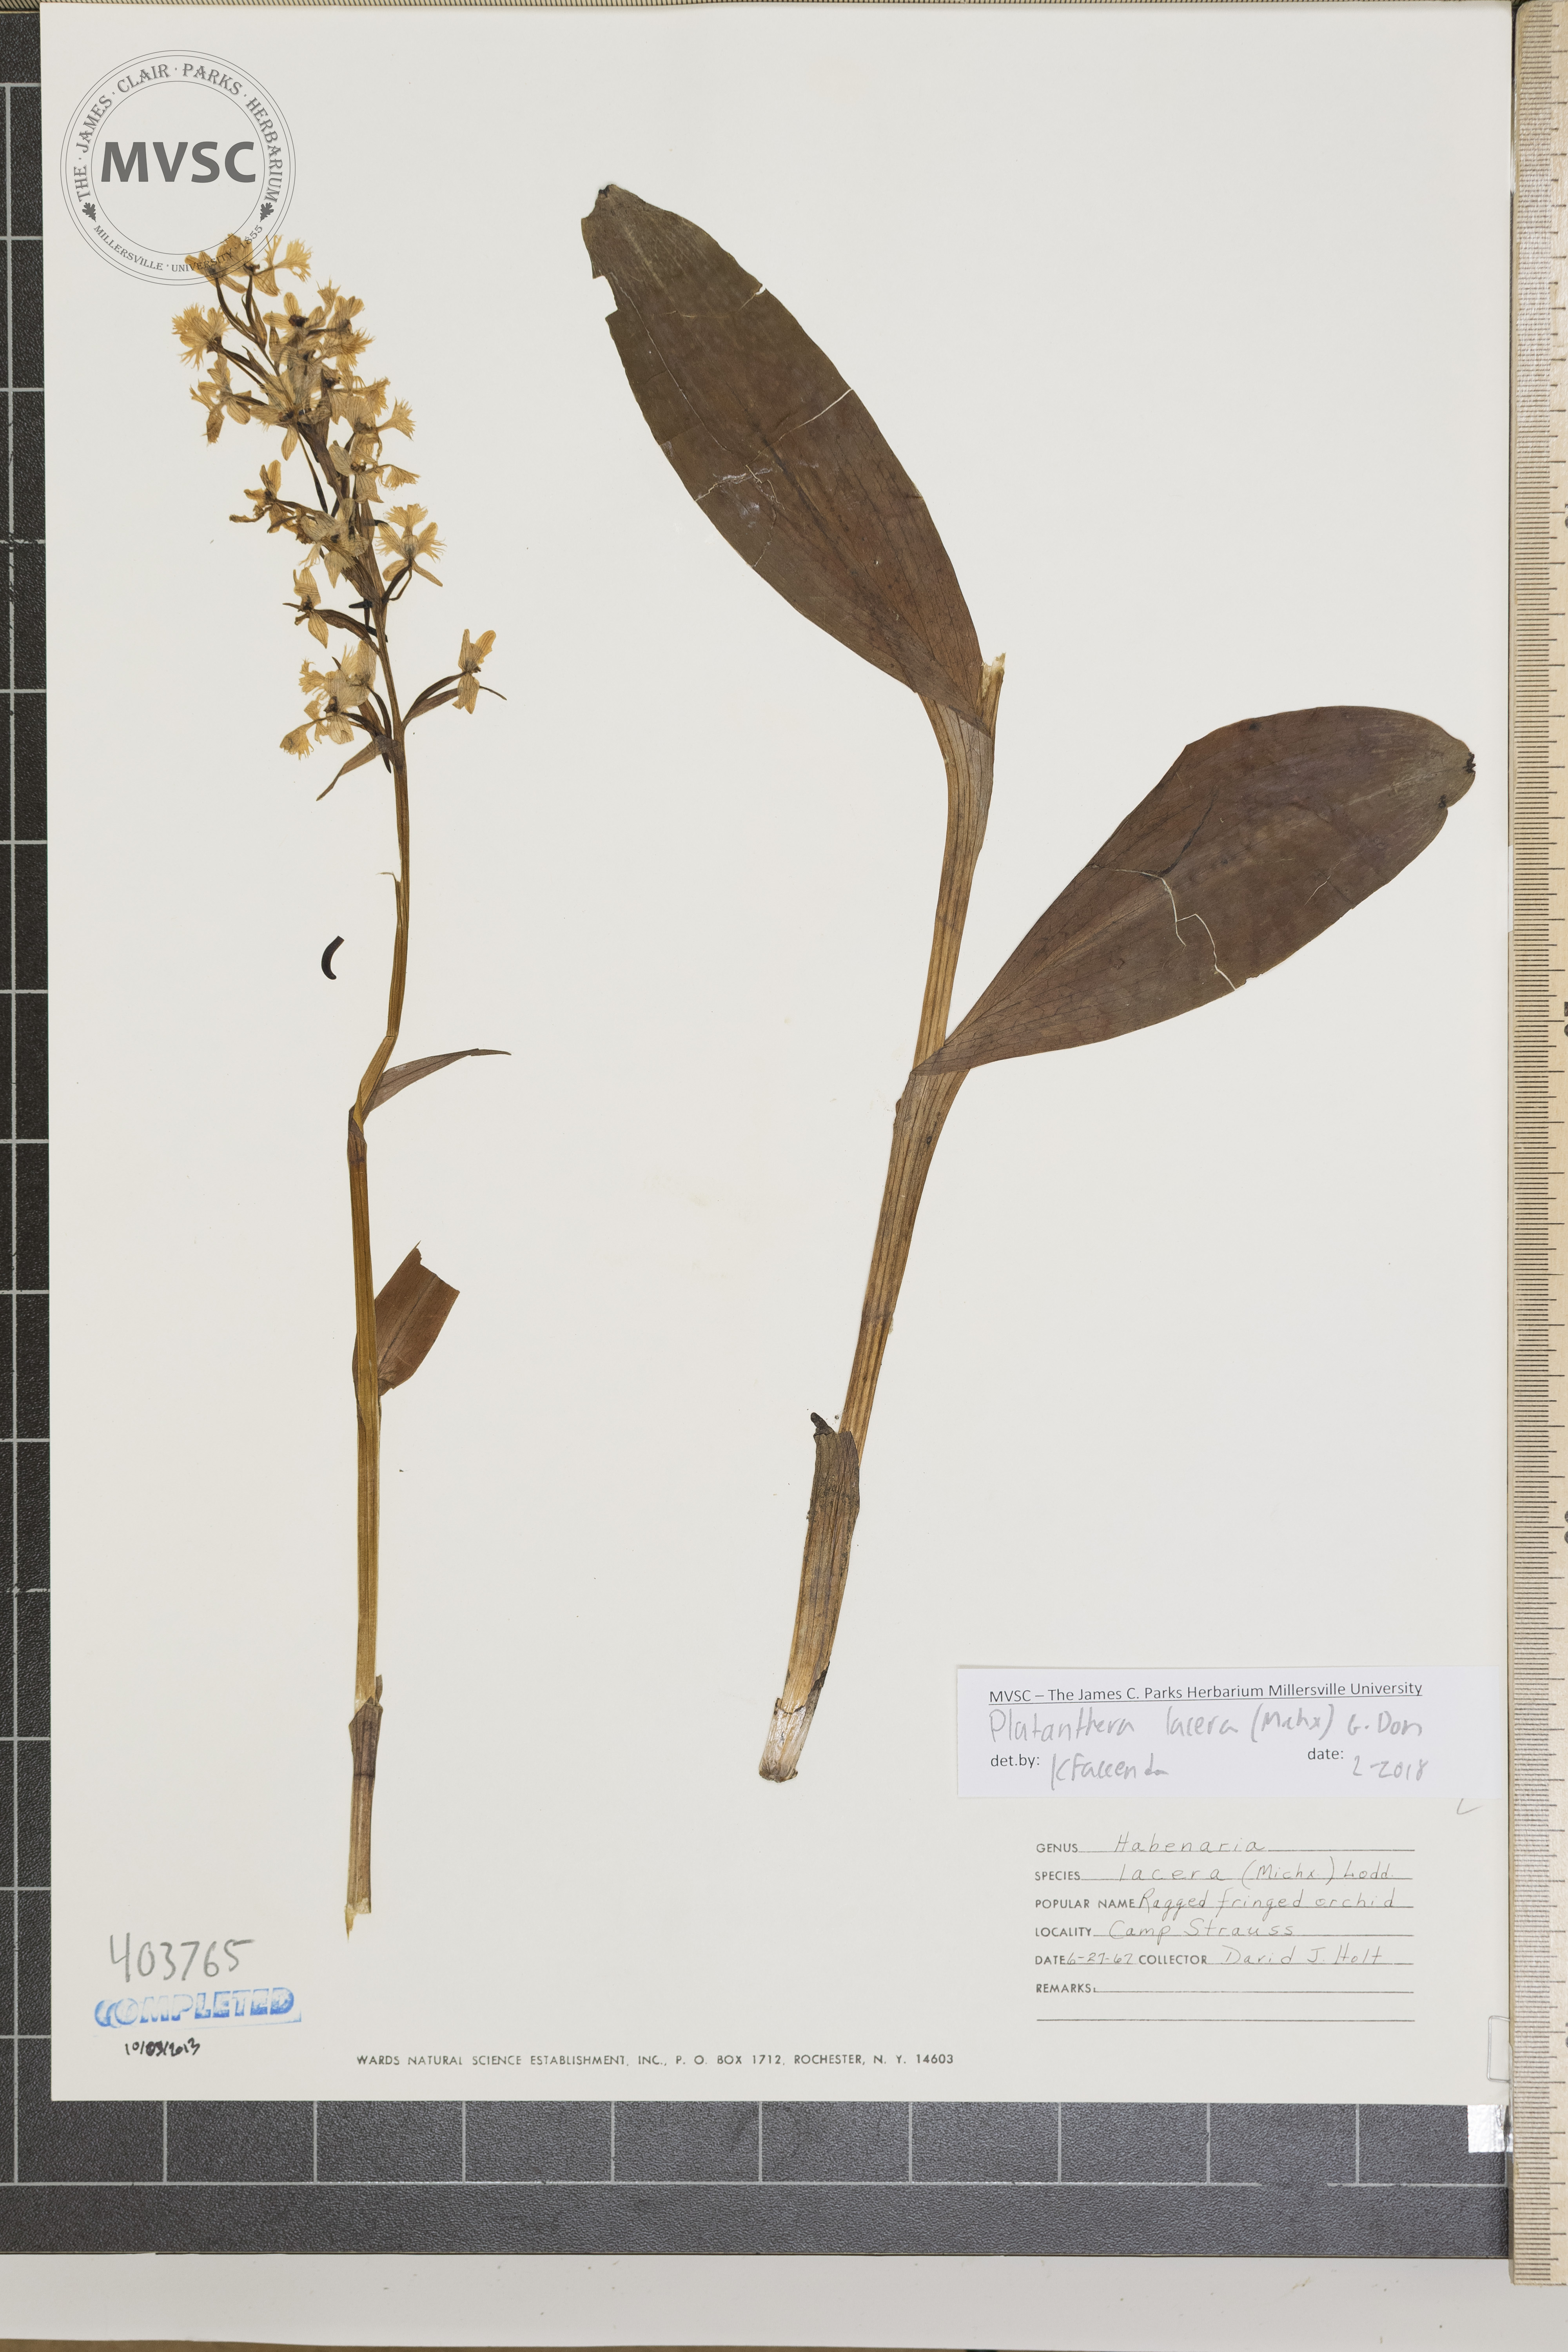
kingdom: Plantae
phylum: Tracheophyta
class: Liliopsida
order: Asparagales
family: Orchidaceae
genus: Platanthera
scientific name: Platanthera lacera
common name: Ragged Fringed orchid
